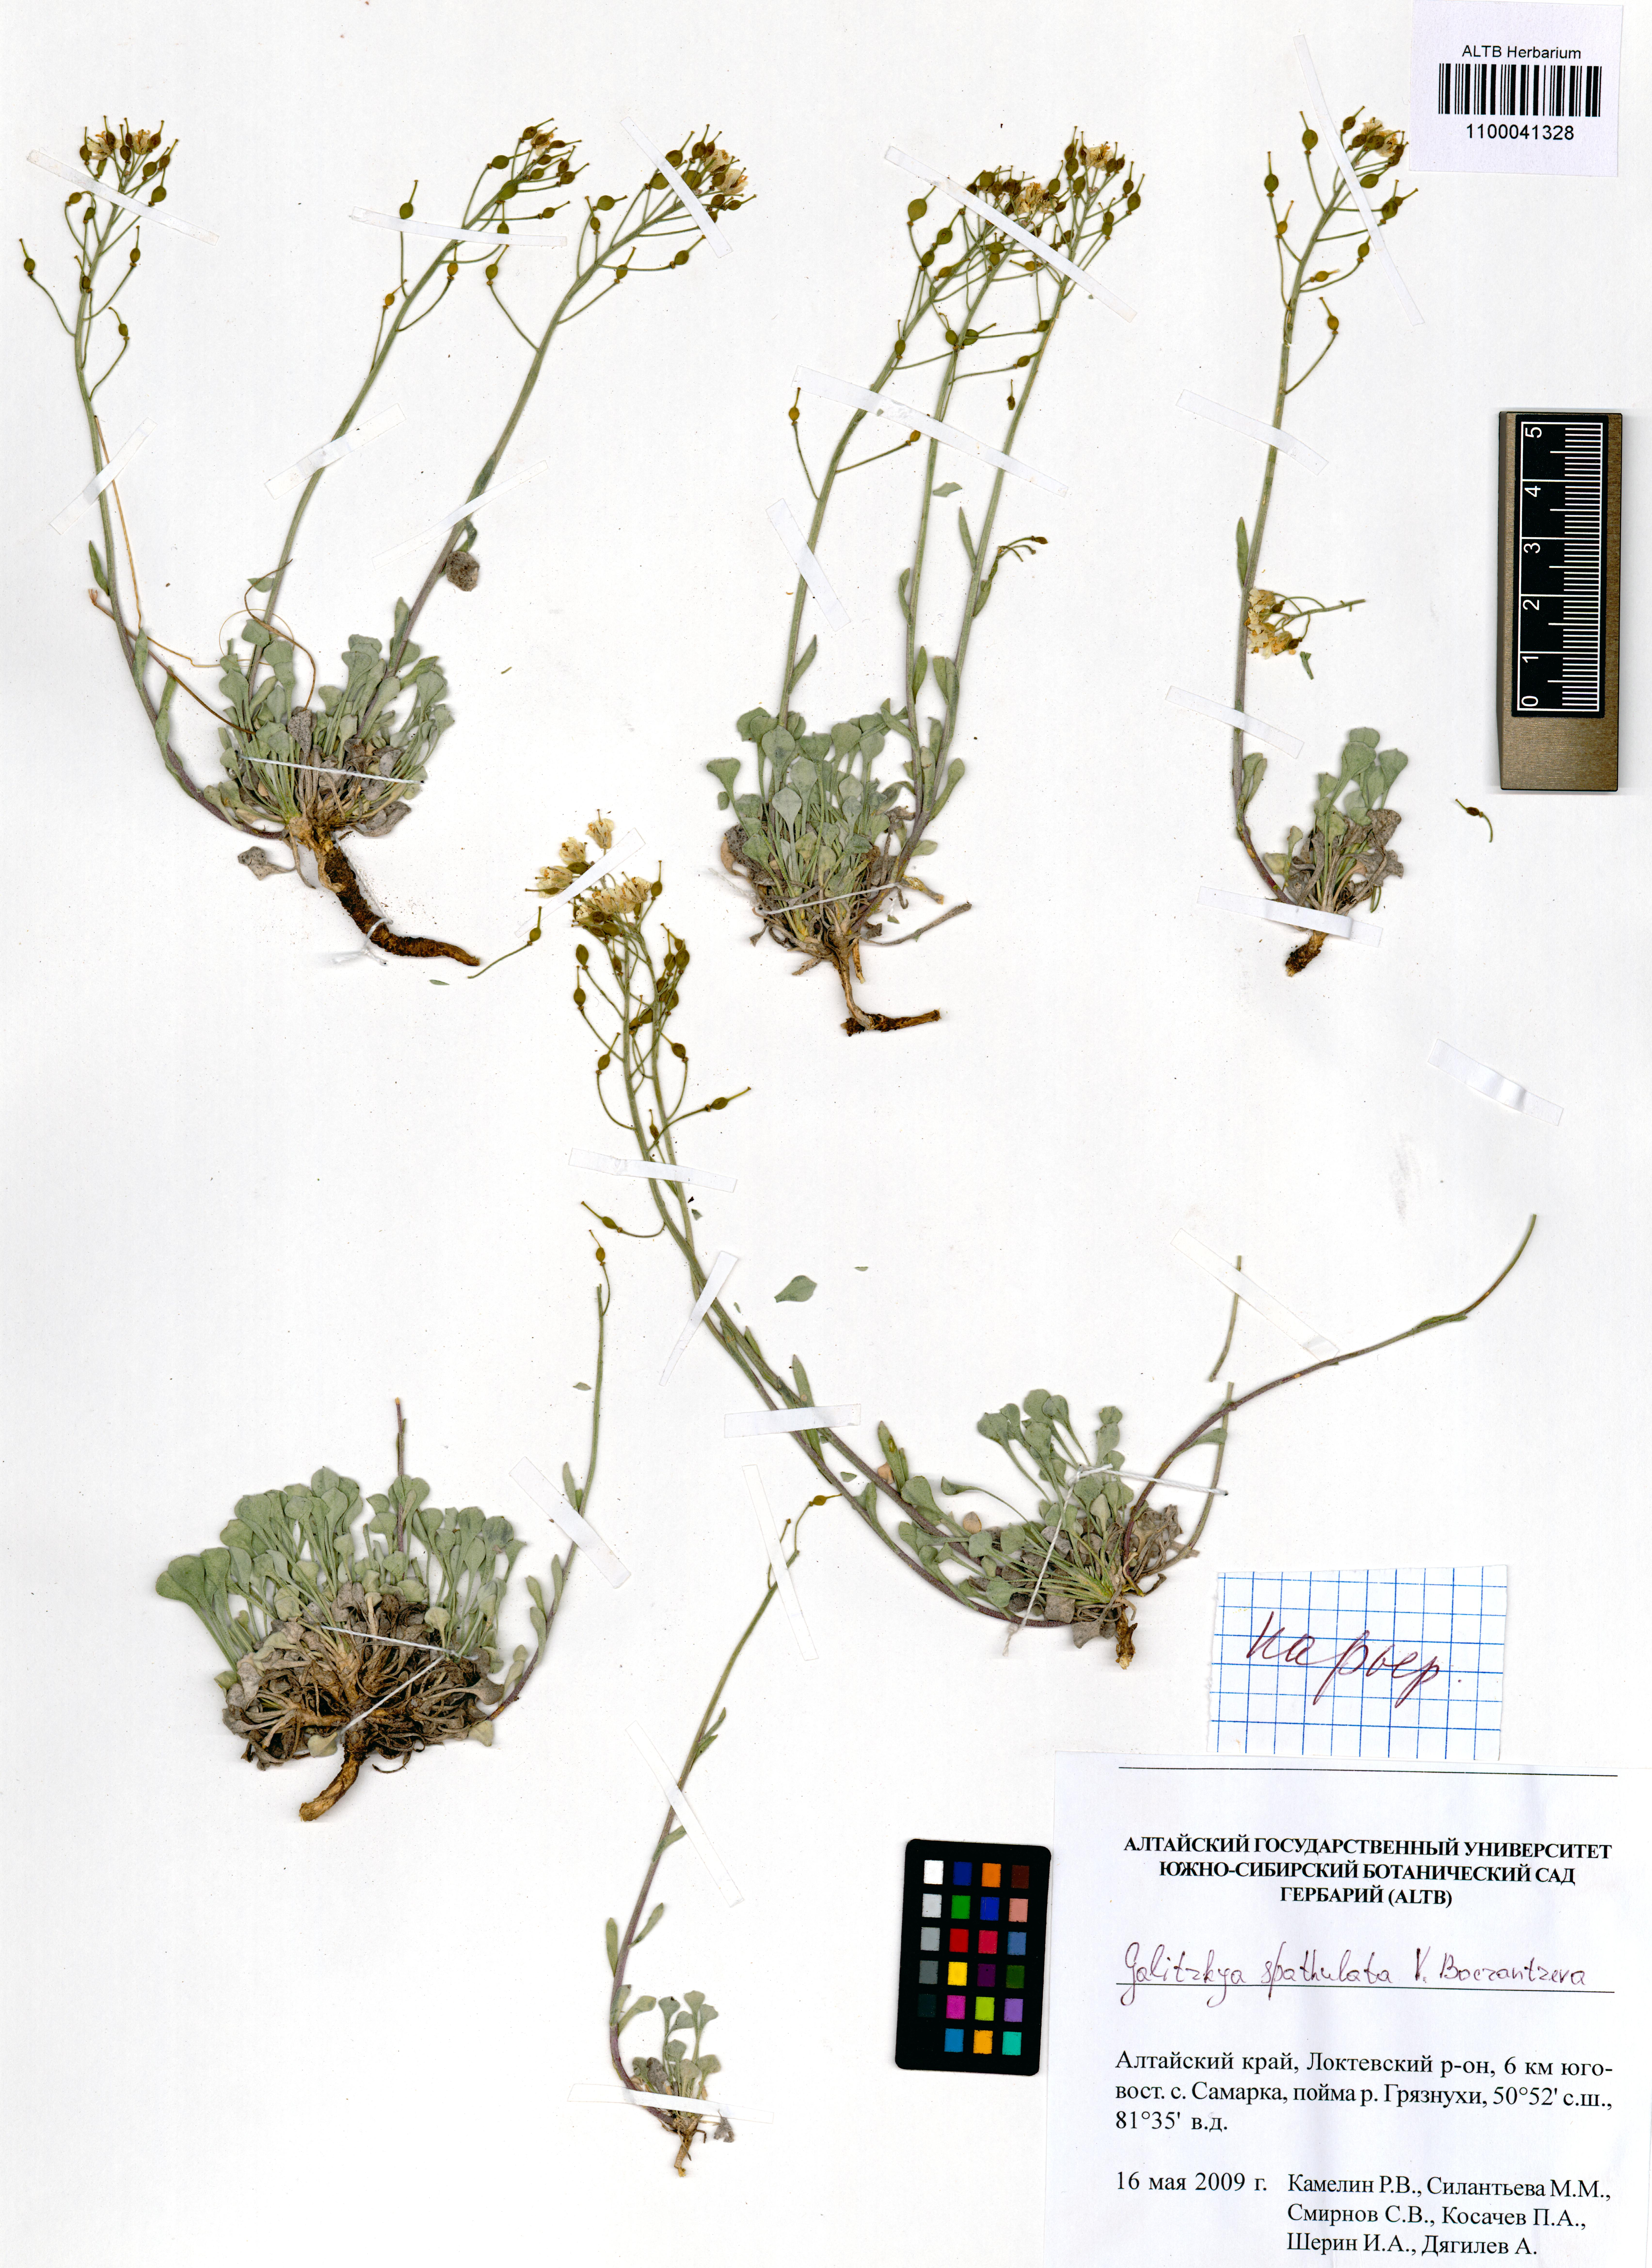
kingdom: Plantae
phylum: Tracheophyta
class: Magnoliopsida
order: Brassicales
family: Brassicaceae
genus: Galitzkya
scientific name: Galitzkya spathulata
